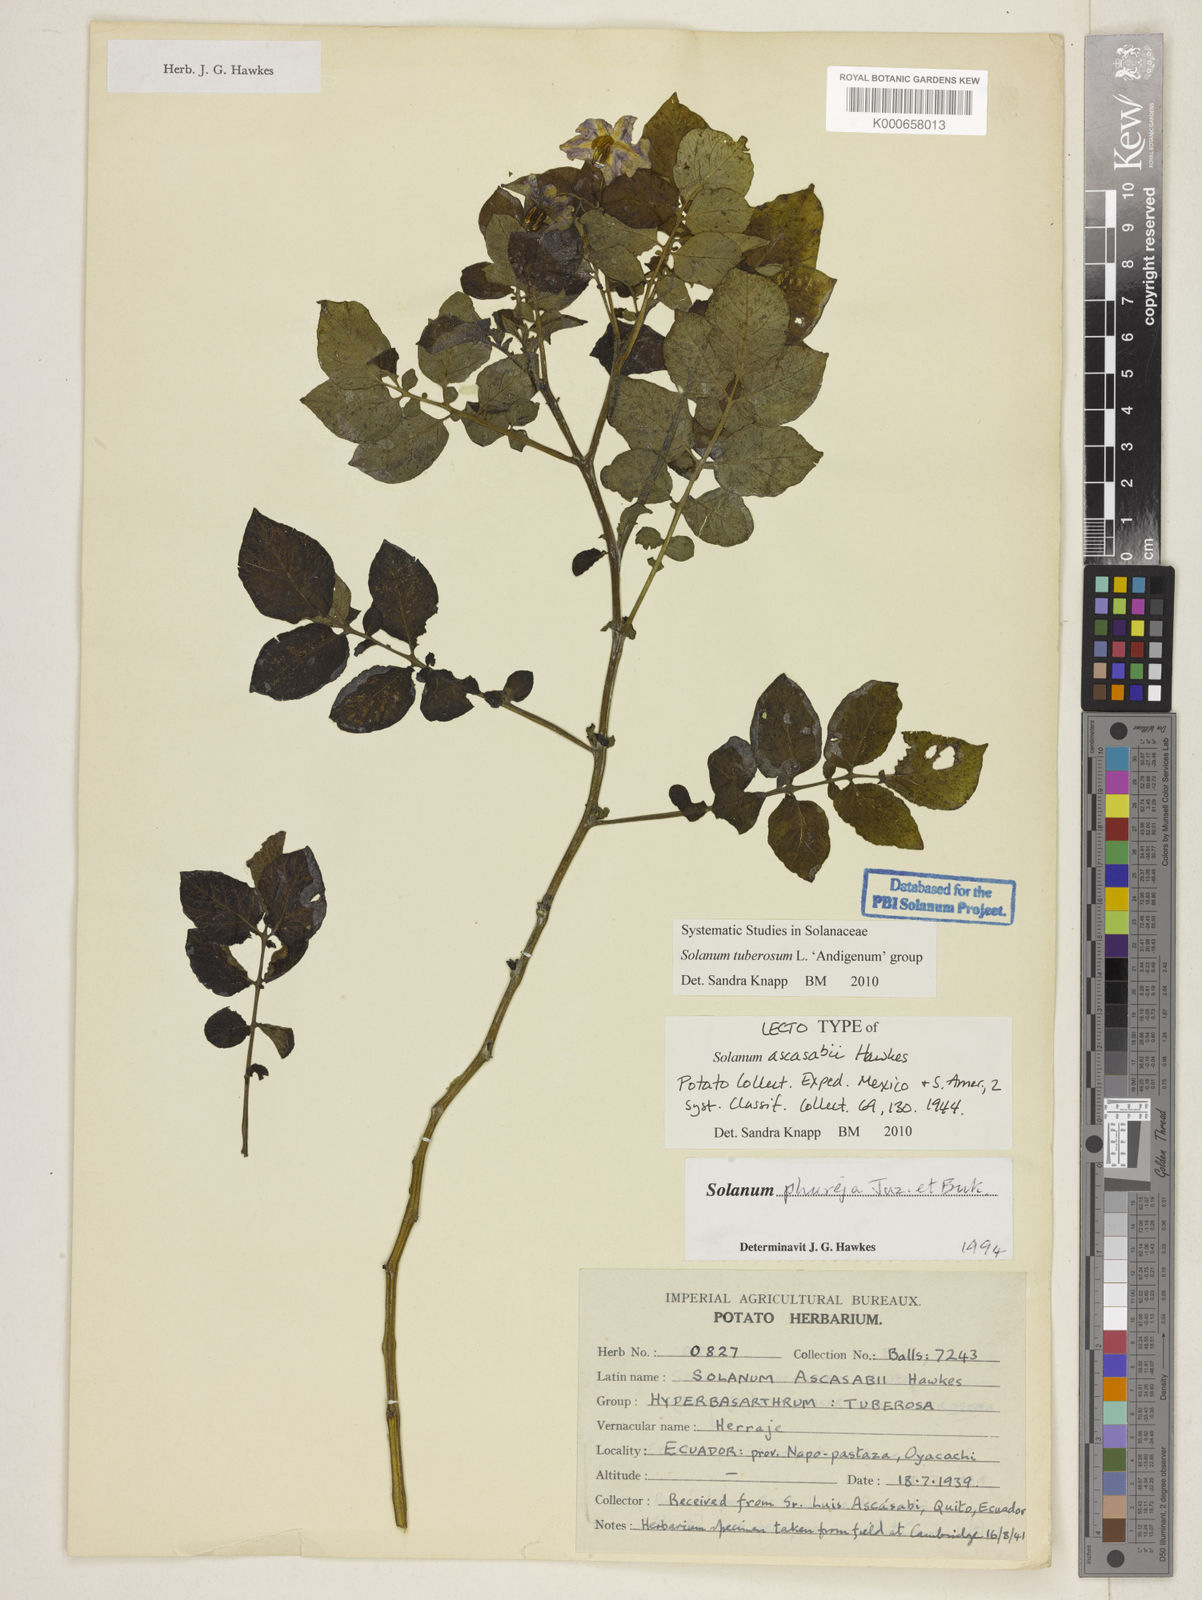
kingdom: Plantae
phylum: Tracheophyta
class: Magnoliopsida
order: Solanales
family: Solanaceae
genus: Solanum
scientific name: Solanum tuberosum
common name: Potato
